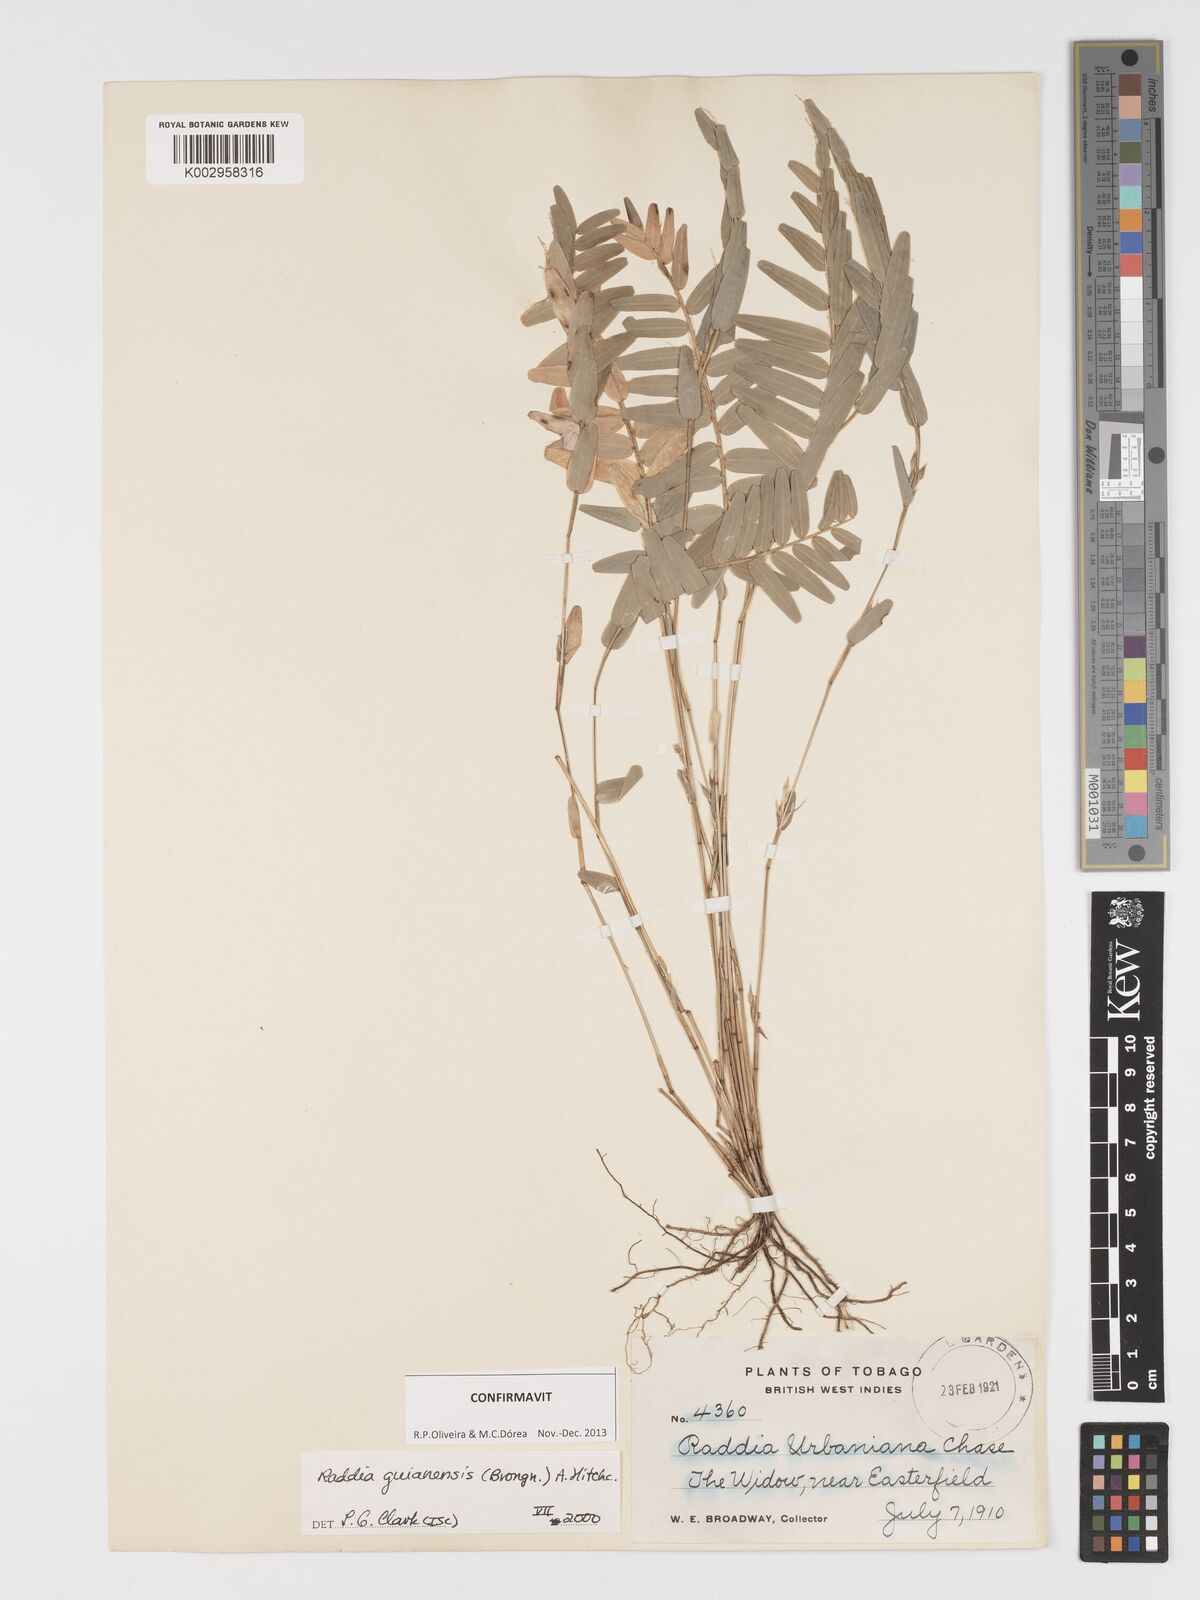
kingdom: Plantae
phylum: Tracheophyta
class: Liliopsida
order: Poales
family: Poaceae
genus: Raddia
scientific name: Raddia guianensis
